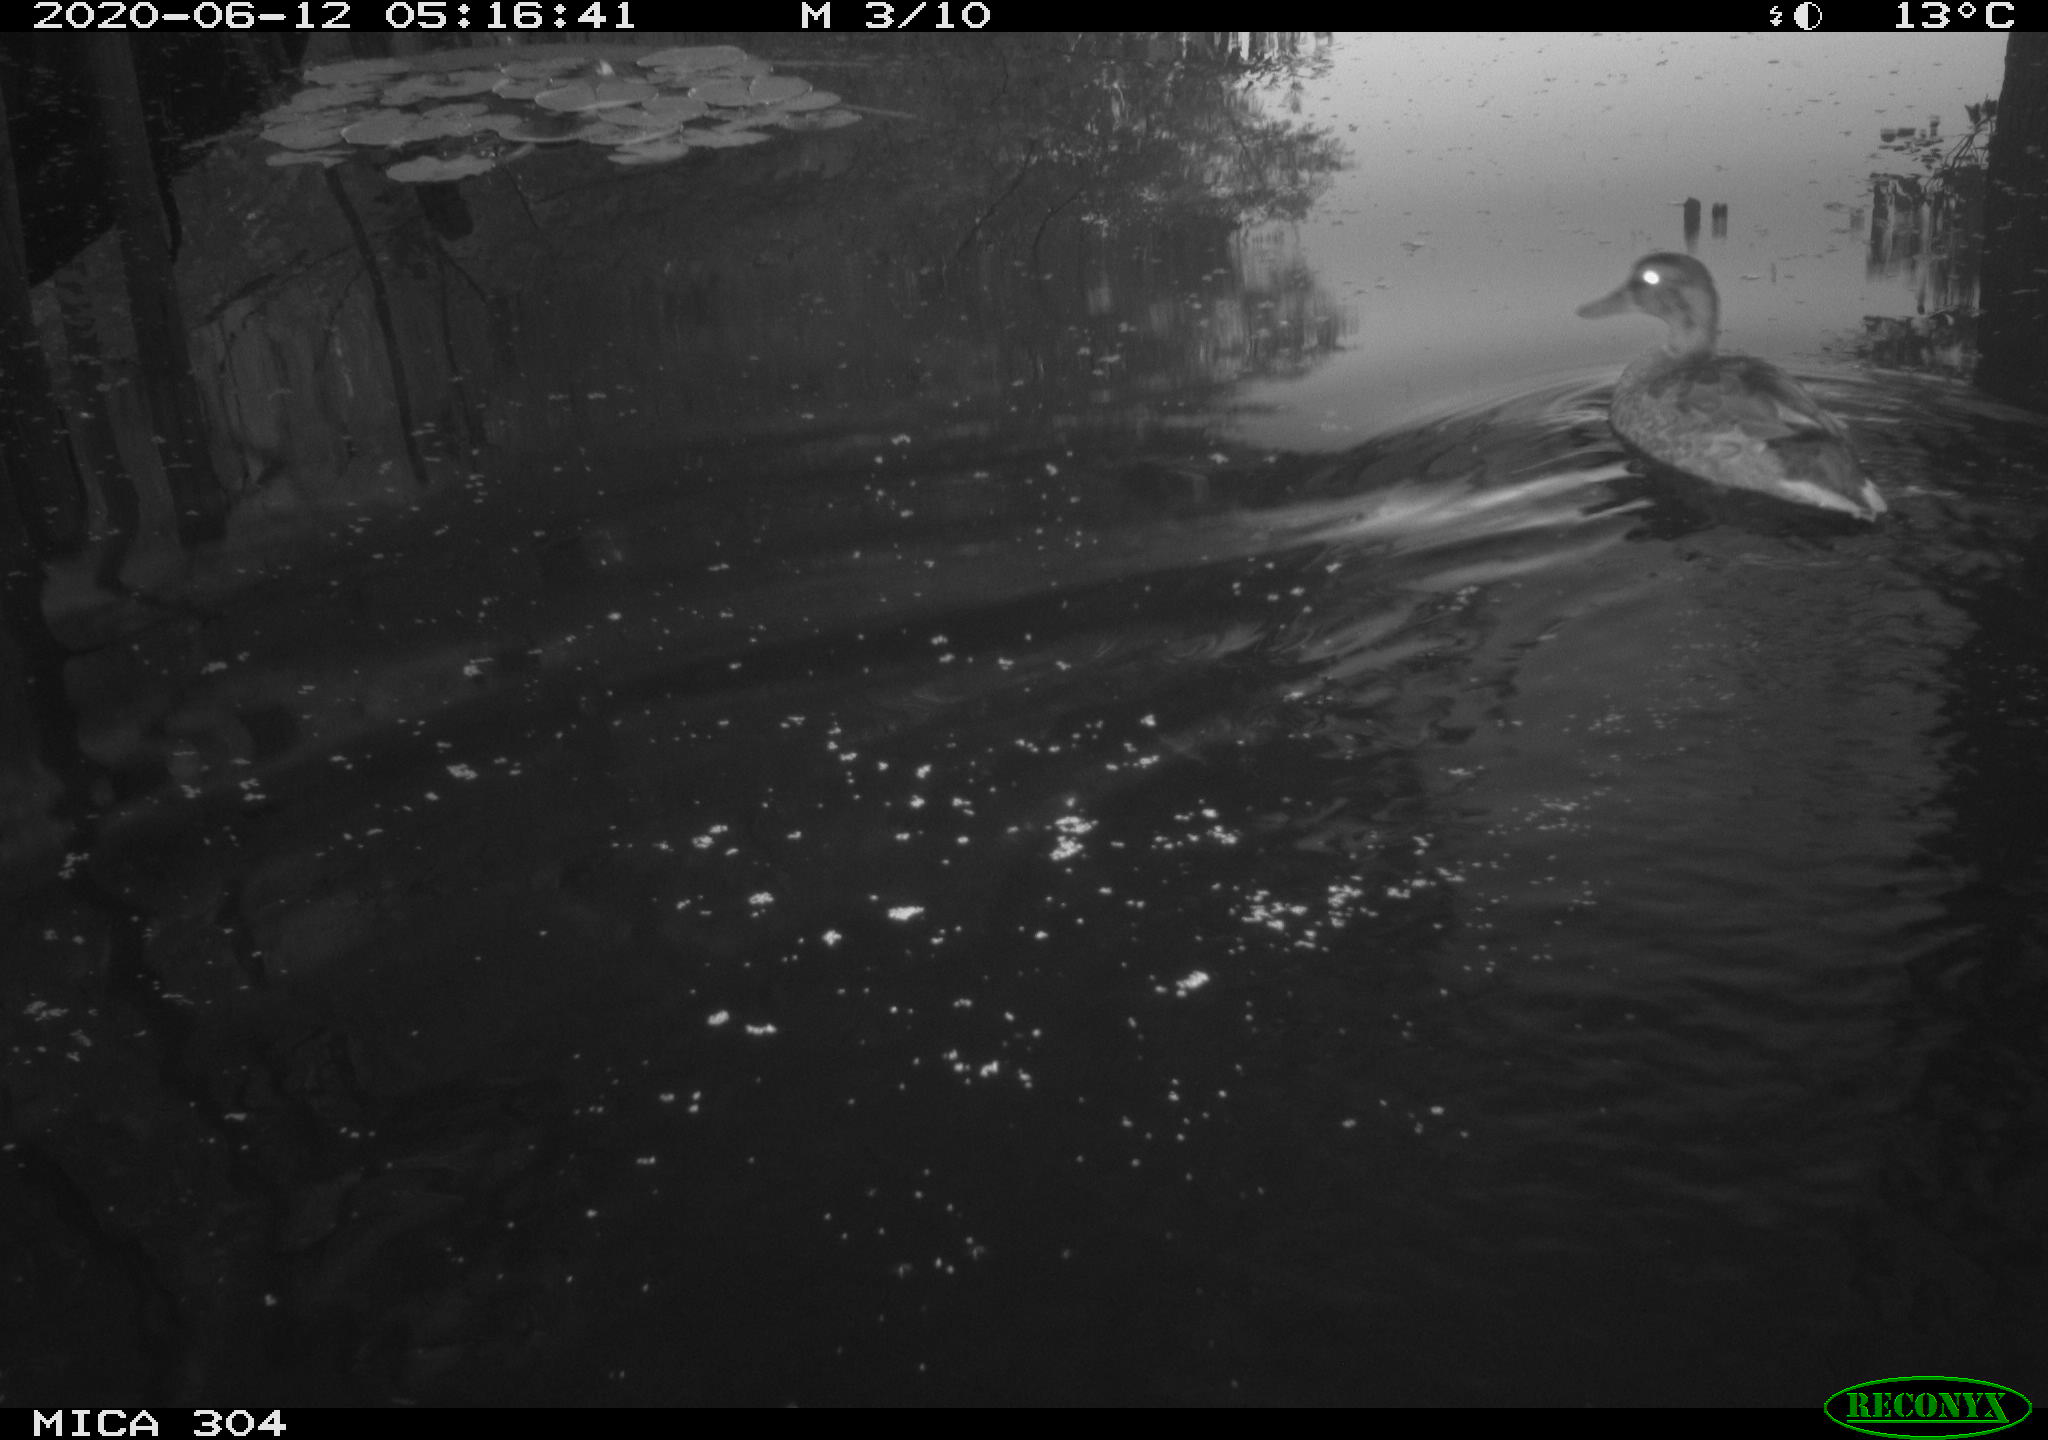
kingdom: Animalia
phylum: Chordata
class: Aves
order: Anseriformes
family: Anatidae
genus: Anas
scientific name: Anas platyrhynchos
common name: Mallard
